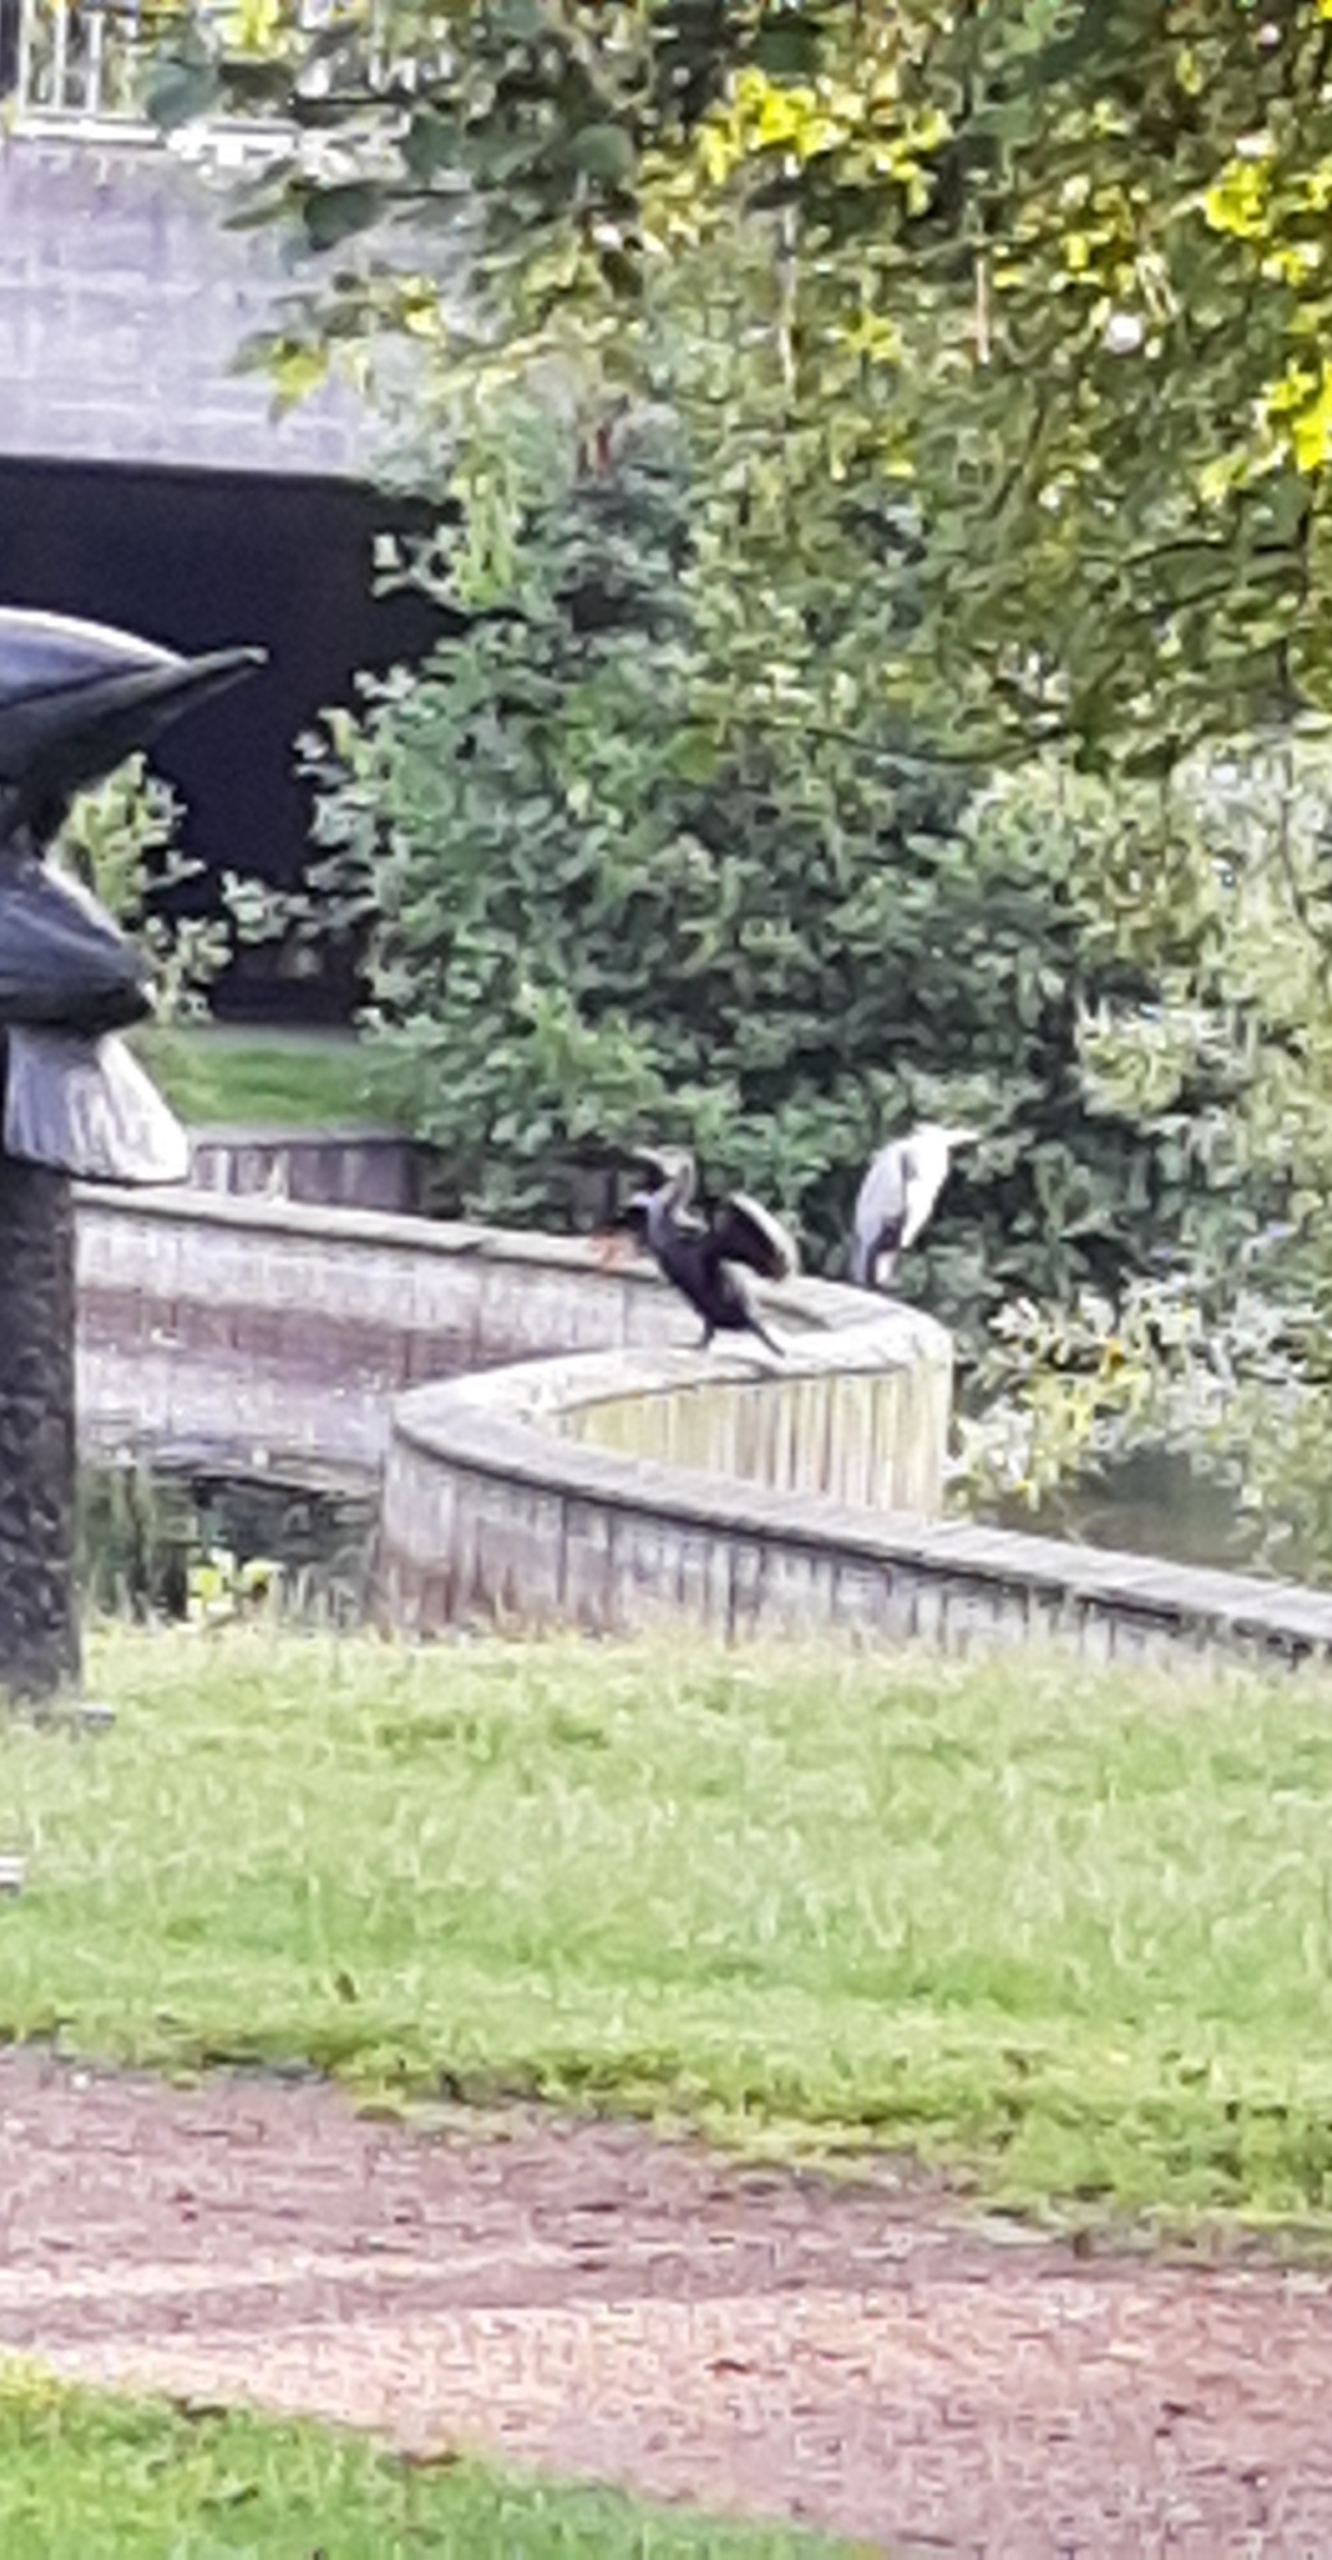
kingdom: Animalia
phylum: Chordata
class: Aves
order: Suliformes
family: Phalacrocoracidae
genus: Phalacrocorax
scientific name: Phalacrocorax carbo
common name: Skarv
